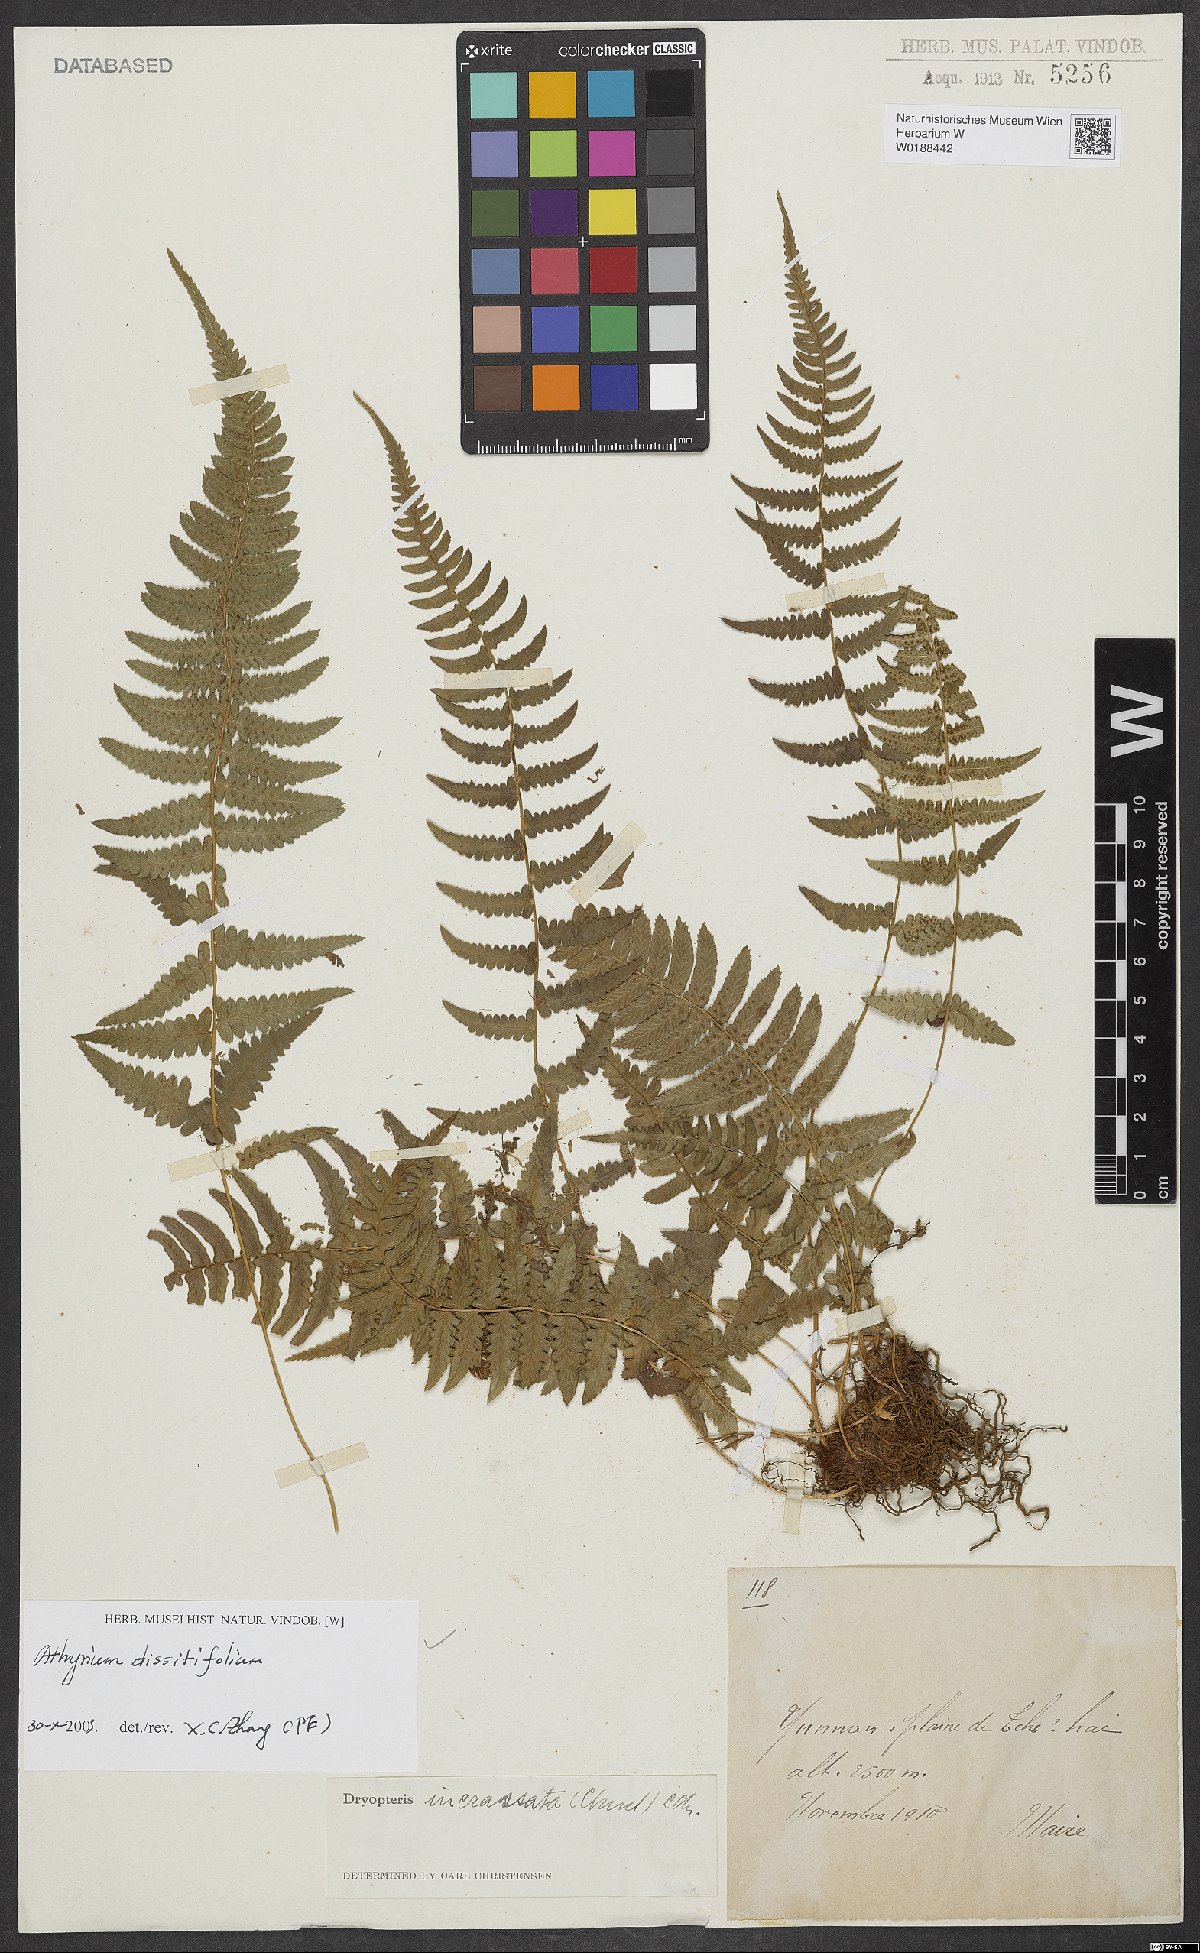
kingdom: Plantae
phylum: Tracheophyta
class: Polypodiopsida
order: Polypodiales
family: Athyriaceae
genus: Athyrium
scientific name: Athyrium dissitifolium
